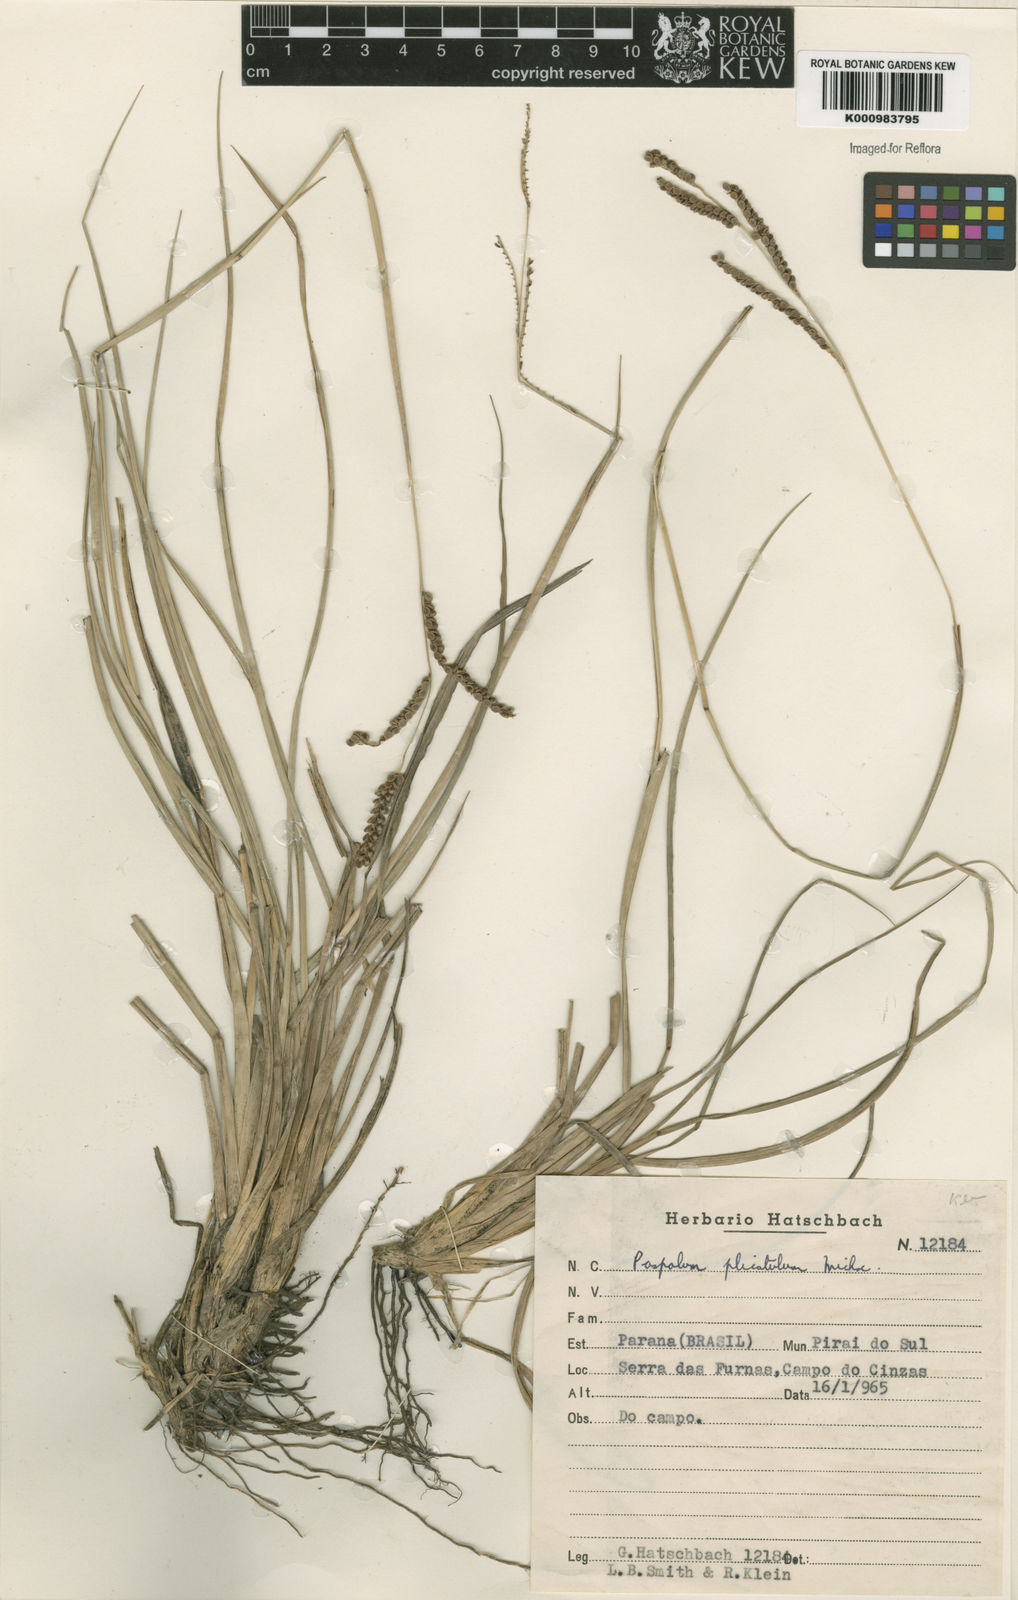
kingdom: Plantae
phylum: Tracheophyta
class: Liliopsida
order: Poales
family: Poaceae
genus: Paspalum
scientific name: Paspalum plicatulum
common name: Top paspalum
